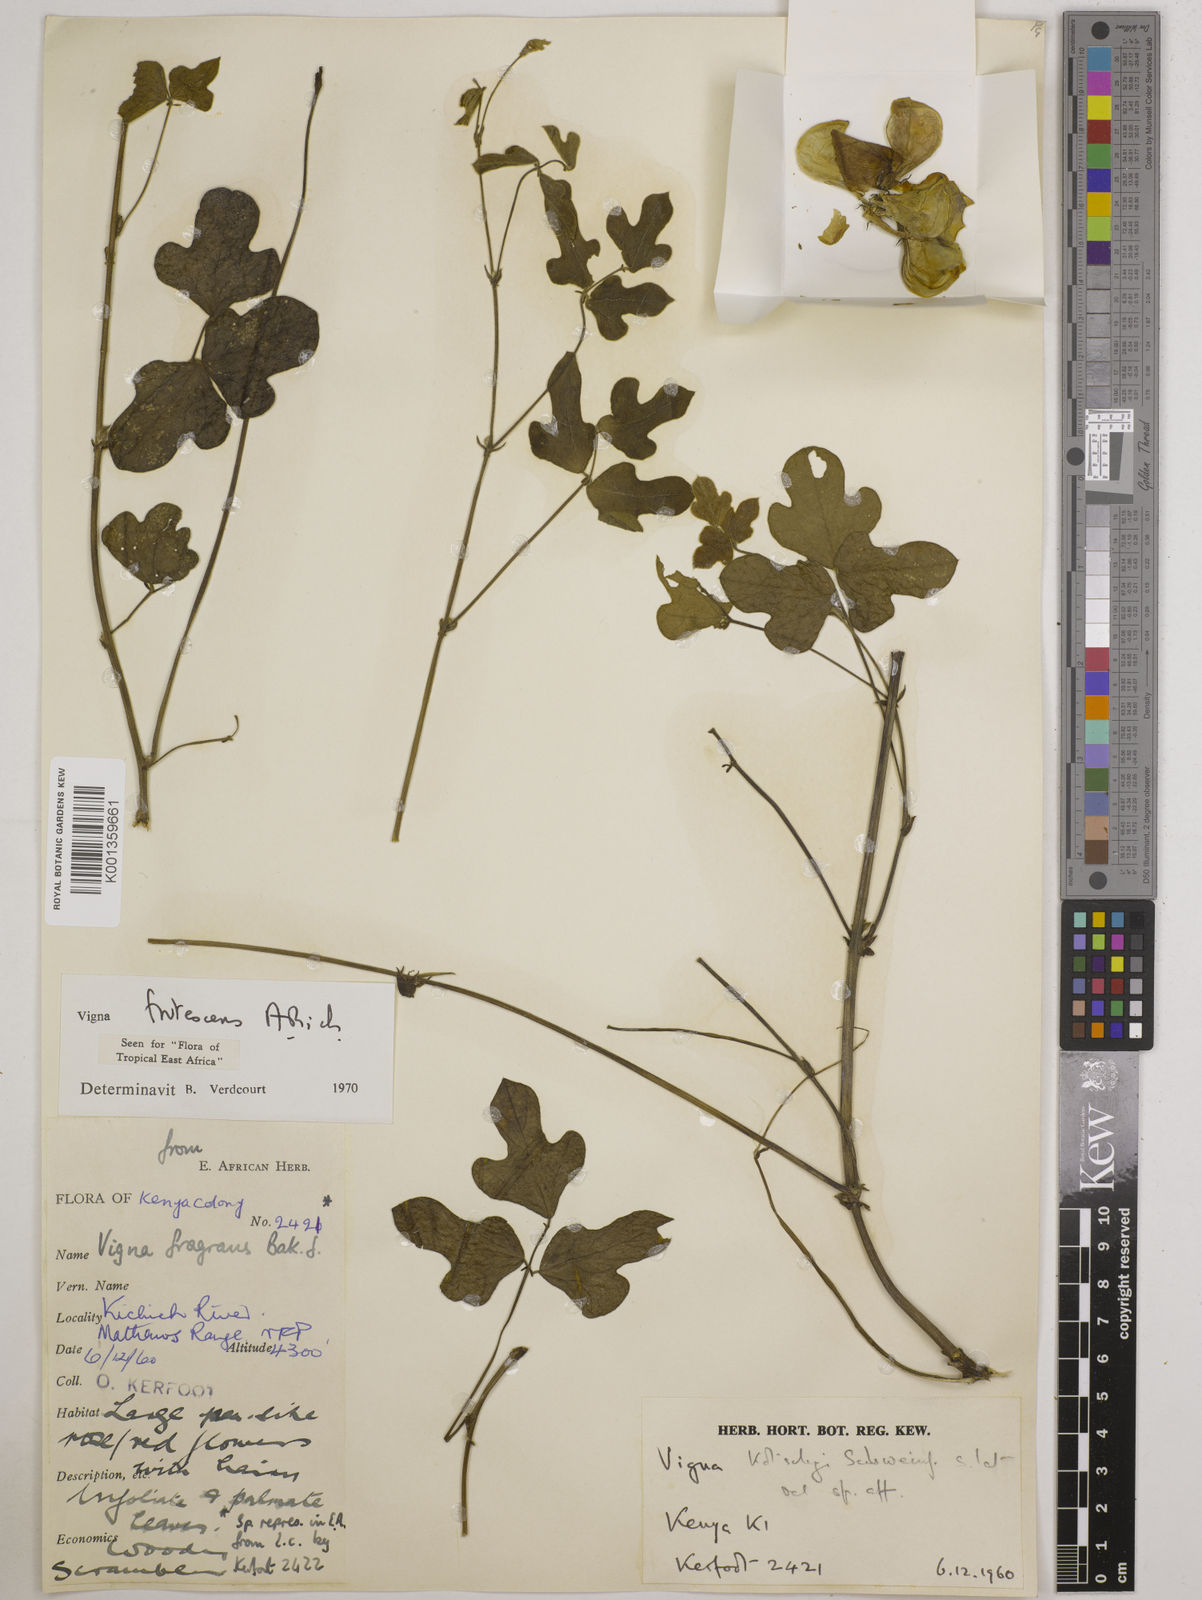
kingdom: Plantae
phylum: Tracheophyta
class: Magnoliopsida
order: Fabales
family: Fabaceae
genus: Vigna
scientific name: Vigna frutescens
